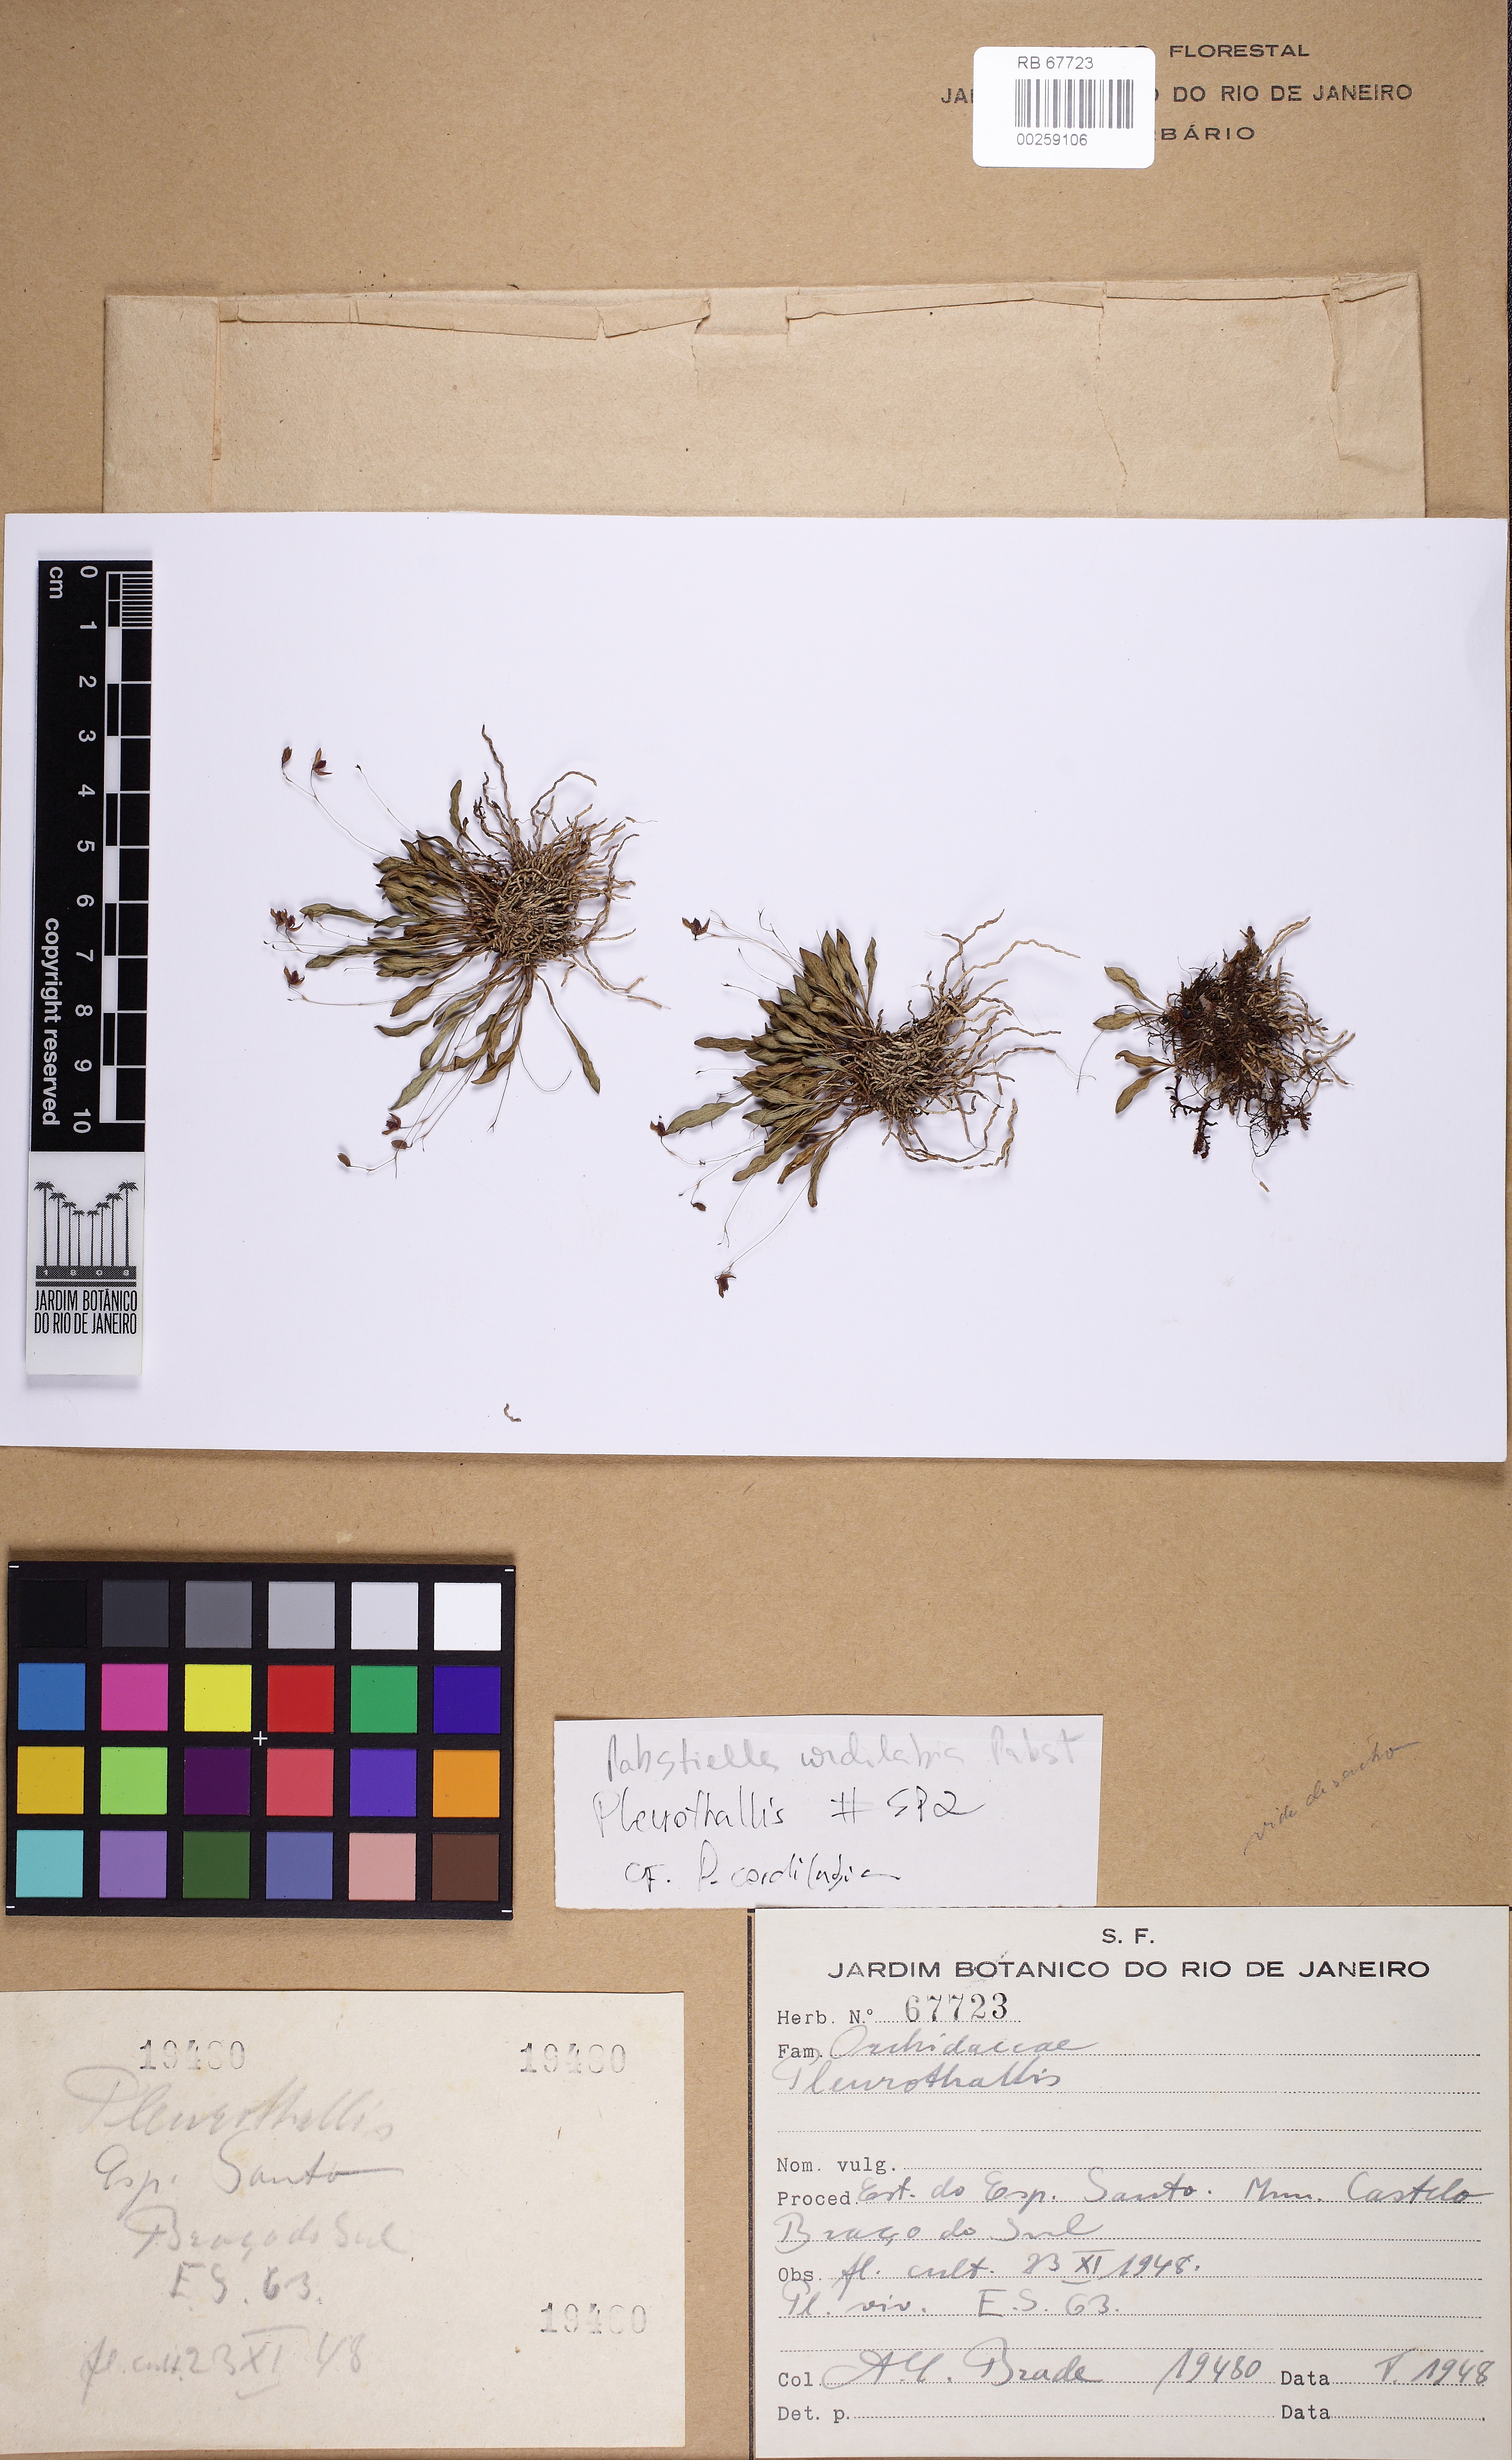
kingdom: Plantae
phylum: Tracheophyta
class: Liliopsida
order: Asparagales
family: Orchidaceae
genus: Pleurothallis
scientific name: Pleurothallis
